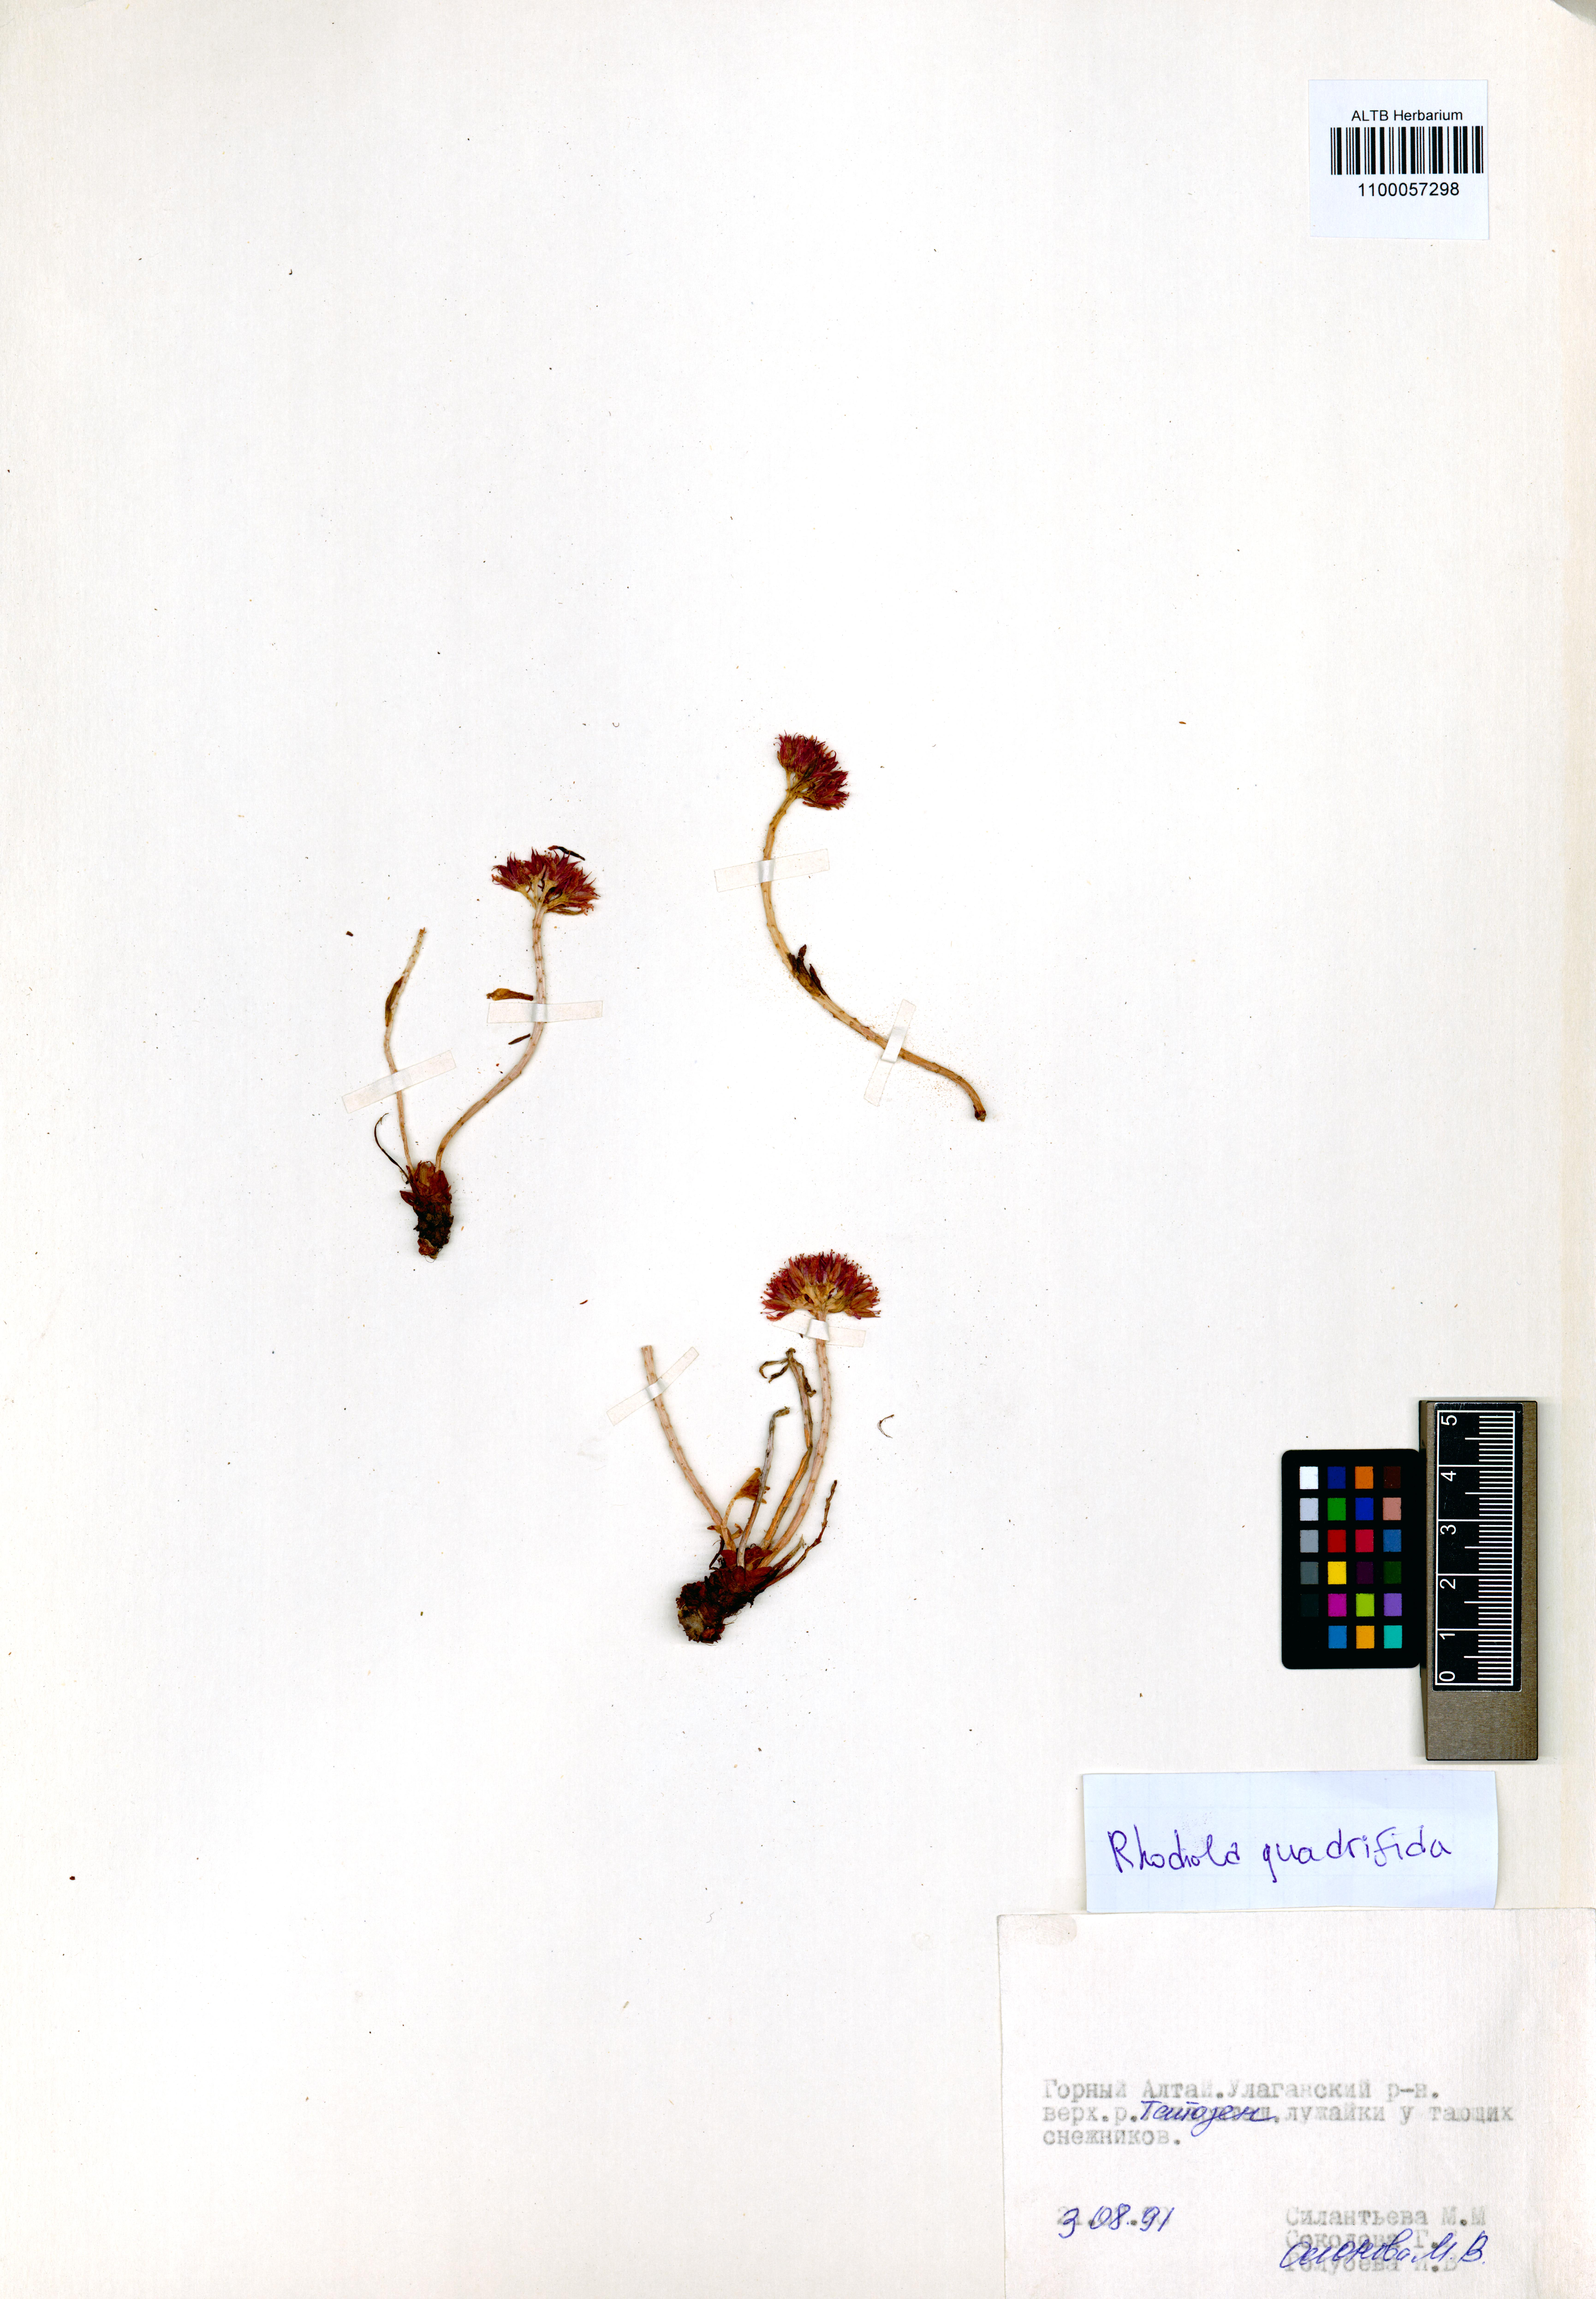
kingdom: Plantae
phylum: Tracheophyta
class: Magnoliopsida
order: Saxifragales
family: Crassulaceae
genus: Rhodiola
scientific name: Rhodiola quadrifida
